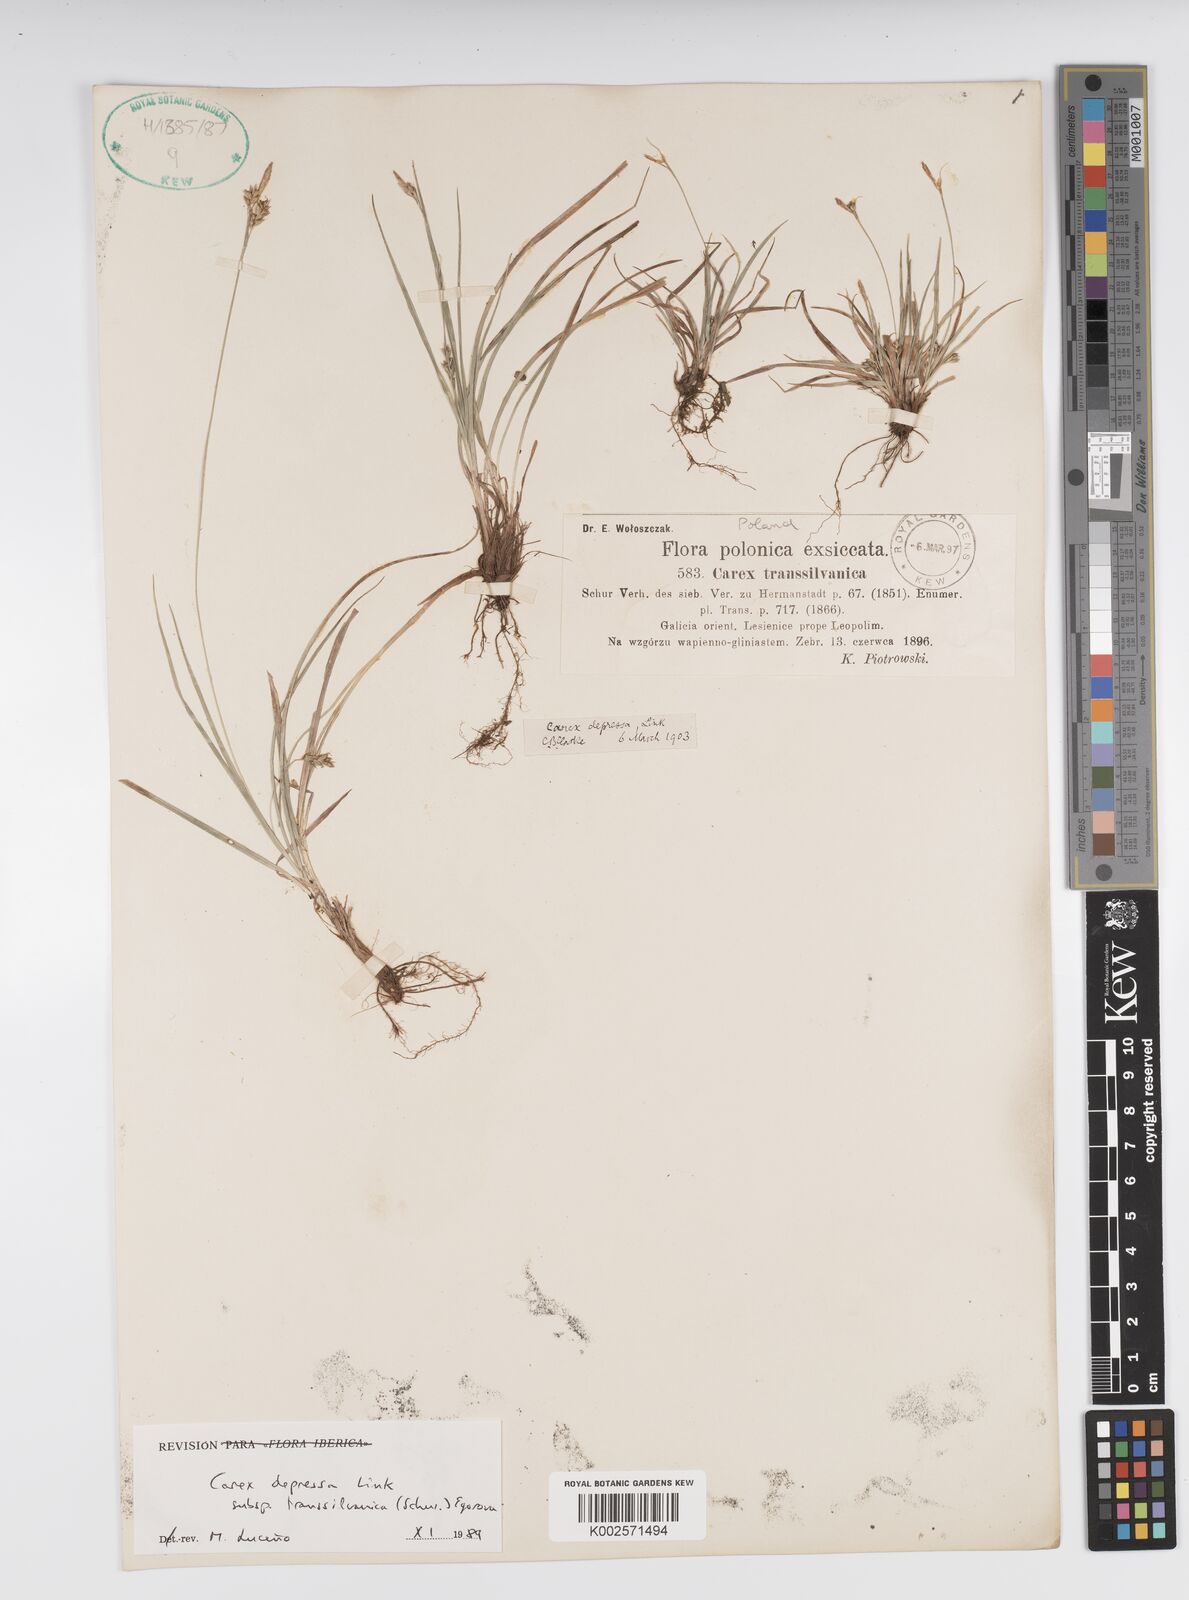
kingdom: Plantae
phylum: Tracheophyta
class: Liliopsida
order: Poales
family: Cyperaceae
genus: Carex
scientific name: Carex depressa
